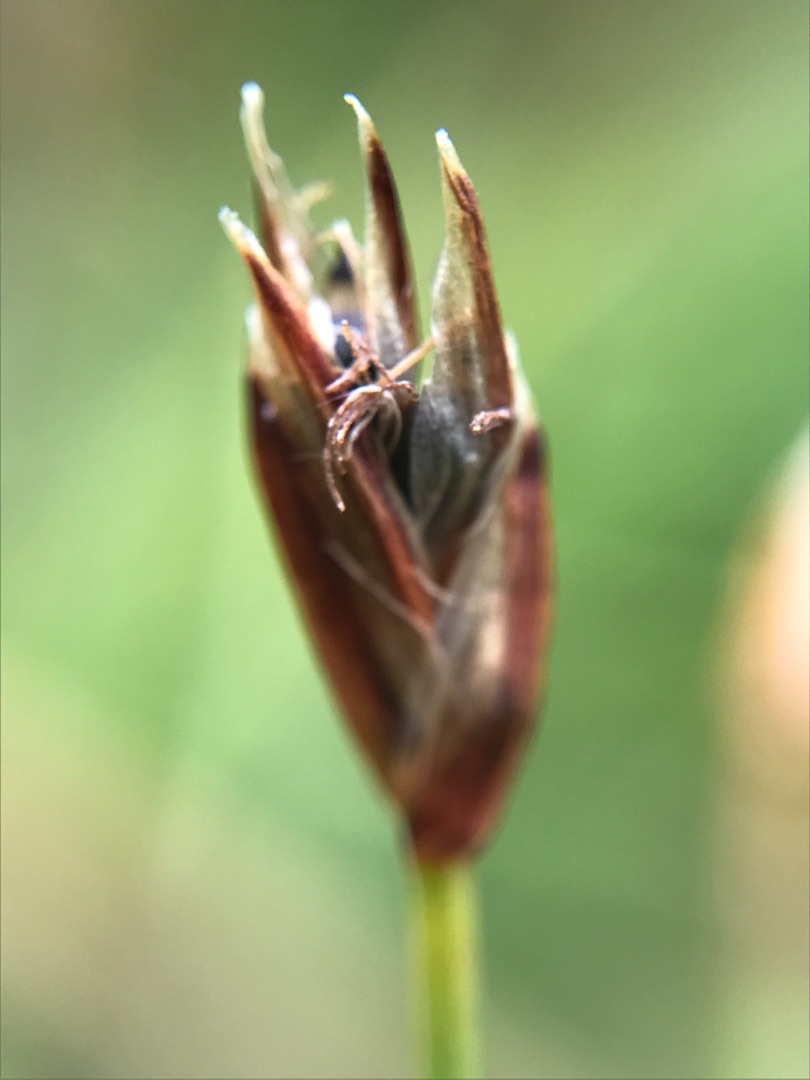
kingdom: Plantae
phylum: Tracheophyta
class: Liliopsida
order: Poales
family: Cyperaceae
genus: Eleocharis
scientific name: Eleocharis quinqueflora
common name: Fåblomstret kogleaks
